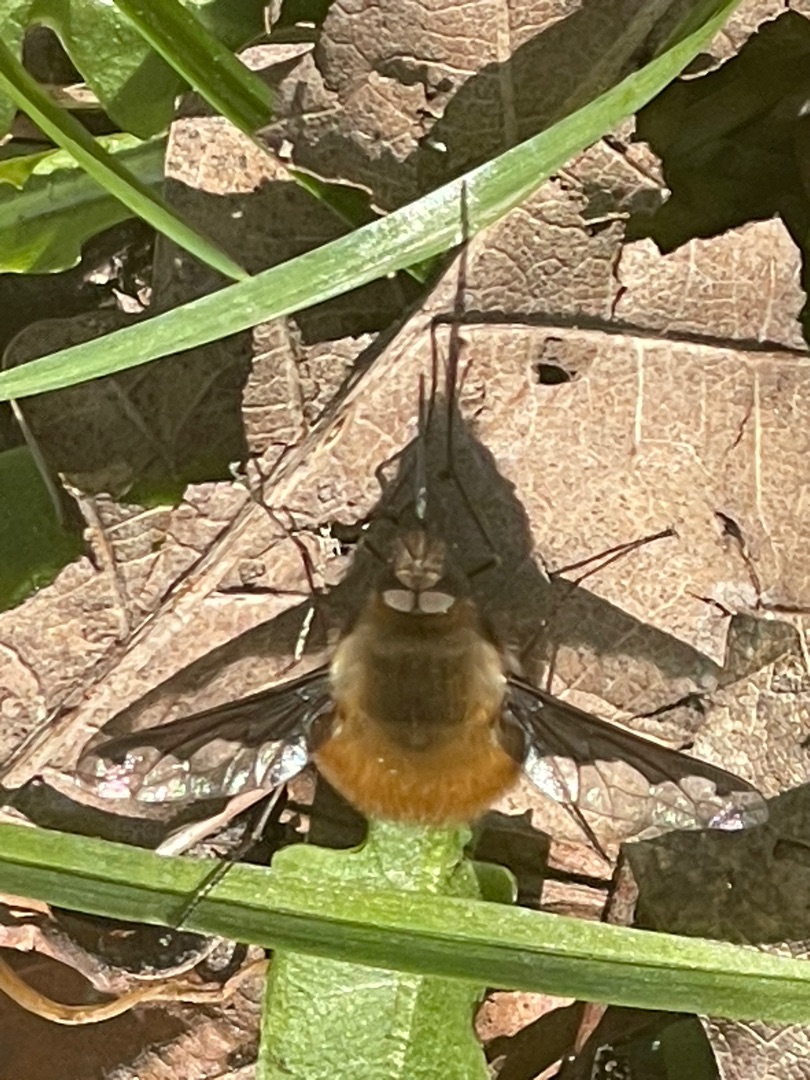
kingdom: Animalia
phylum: Arthropoda
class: Insecta
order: Diptera
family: Bombyliidae
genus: Bombylius
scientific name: Bombylius major
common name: Stor humleflue
